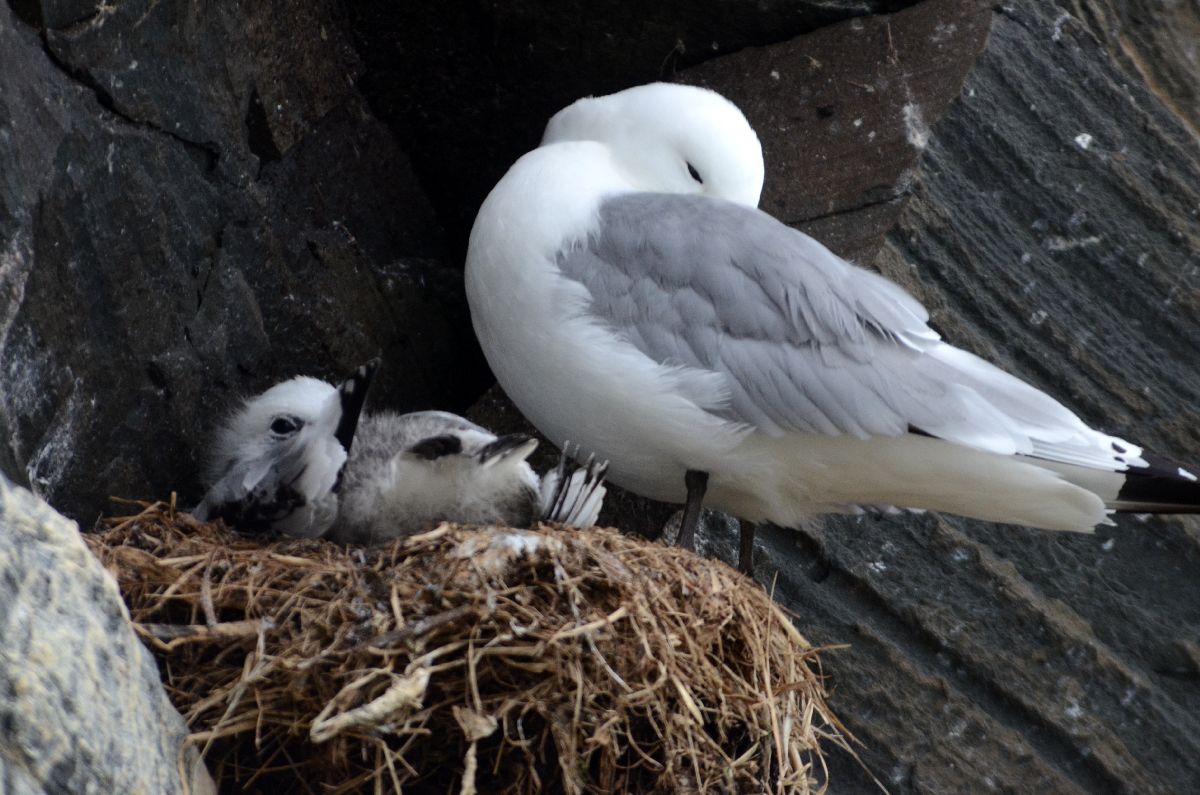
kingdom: Animalia
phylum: Chordata
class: Aves
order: Charadriiformes
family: Laridae
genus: Rissa
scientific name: Rissa tridactyla
